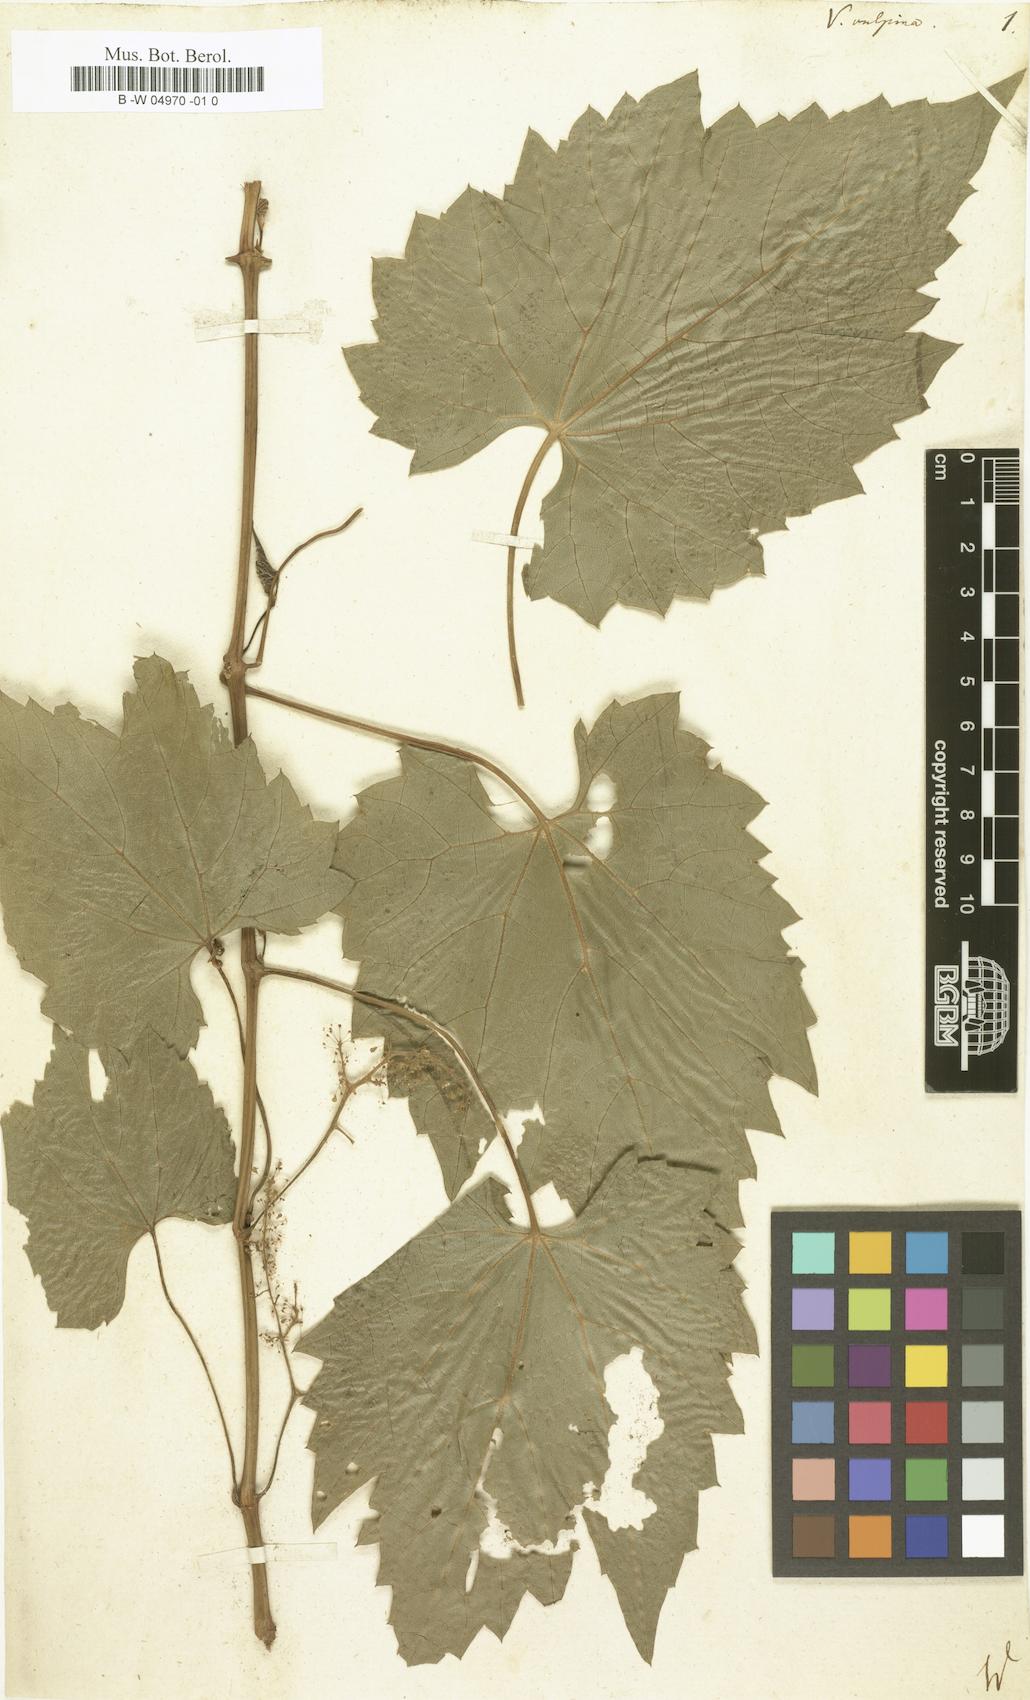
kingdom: Plantae
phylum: Tracheophyta
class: Magnoliopsida
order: Vitales
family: Vitaceae
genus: Vitis
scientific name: Vitis vulpina
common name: Frost grape
